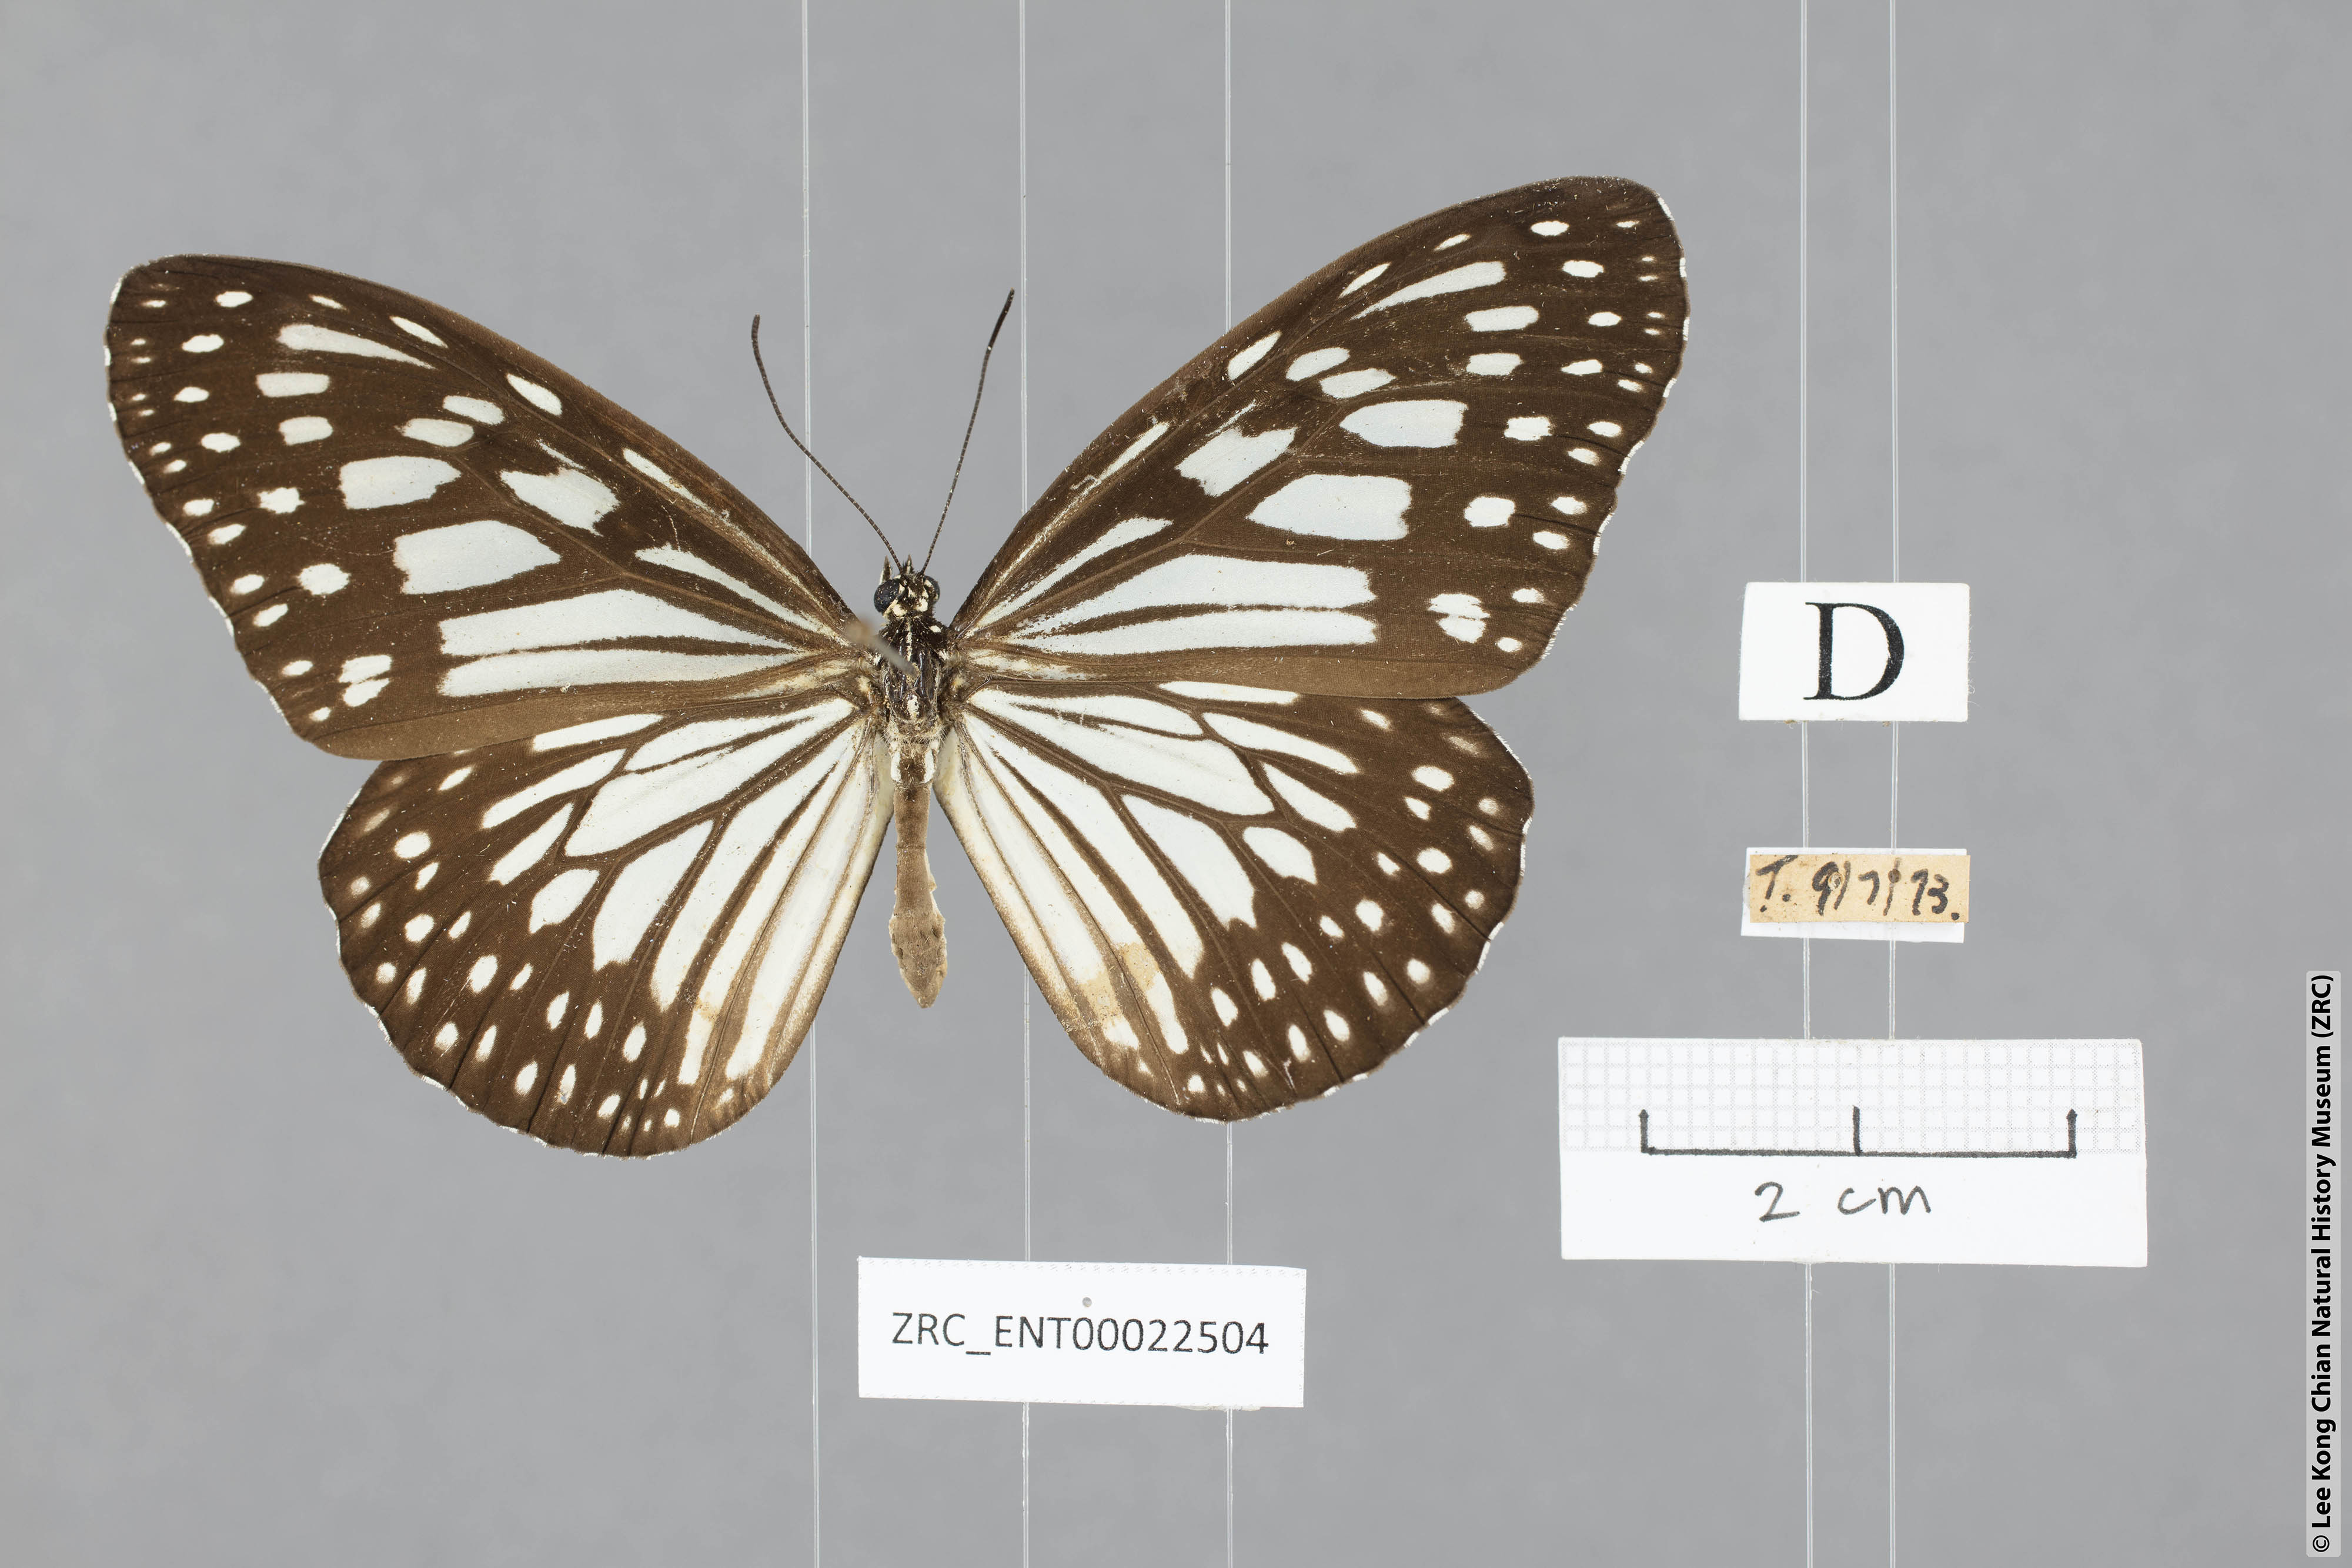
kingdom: Animalia
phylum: Arthropoda
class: Insecta
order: Lepidoptera
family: Nymphalidae
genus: Ideopsis
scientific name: Ideopsis juventa
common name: Grey glassy tiger
